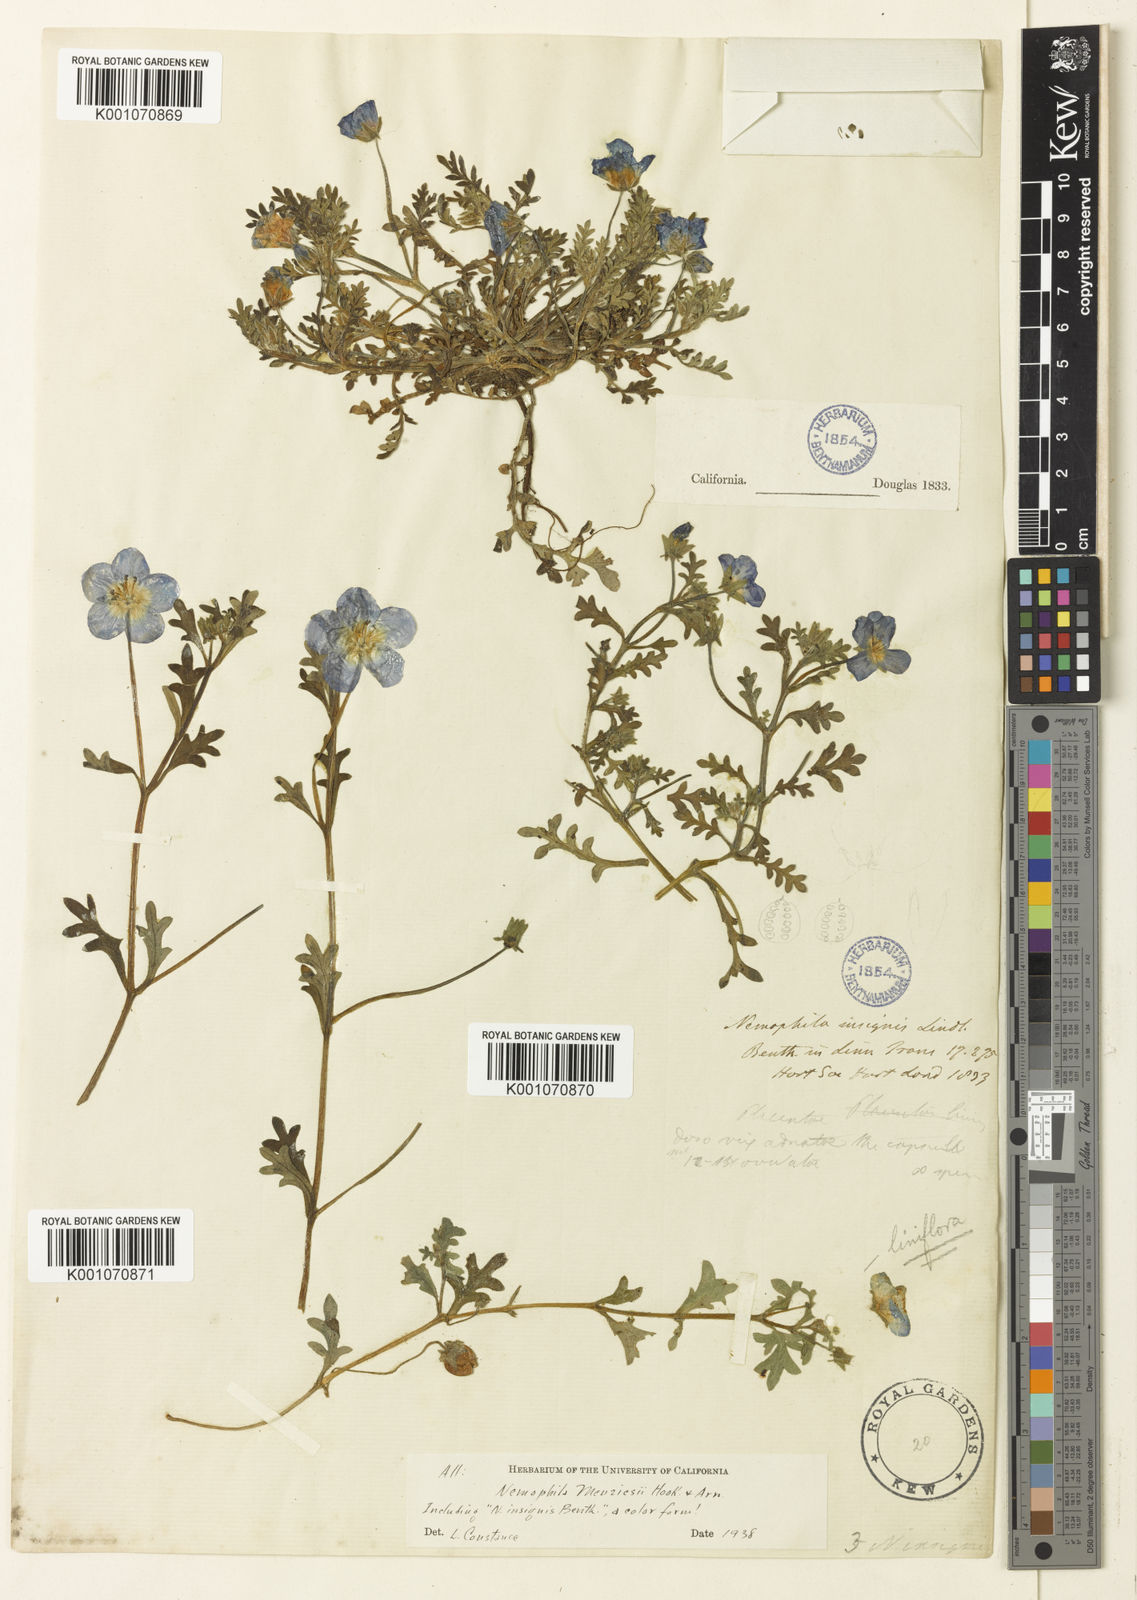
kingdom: Plantae
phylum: Tracheophyta
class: Magnoliopsida
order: Boraginales
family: Hydrophyllaceae
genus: Nemophila
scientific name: Nemophila menziesii
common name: Baby's-blue-eyes
